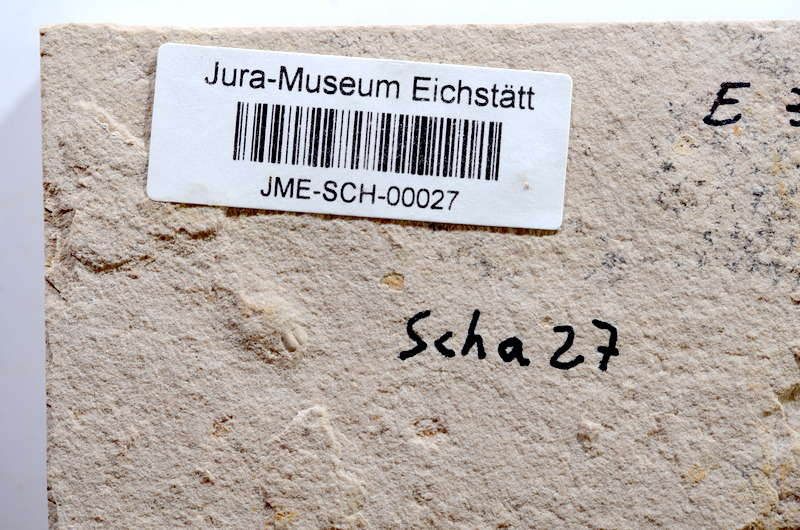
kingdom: Animalia
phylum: Chordata
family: Ascalaboidae
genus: Tharsis
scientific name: Tharsis dubius
